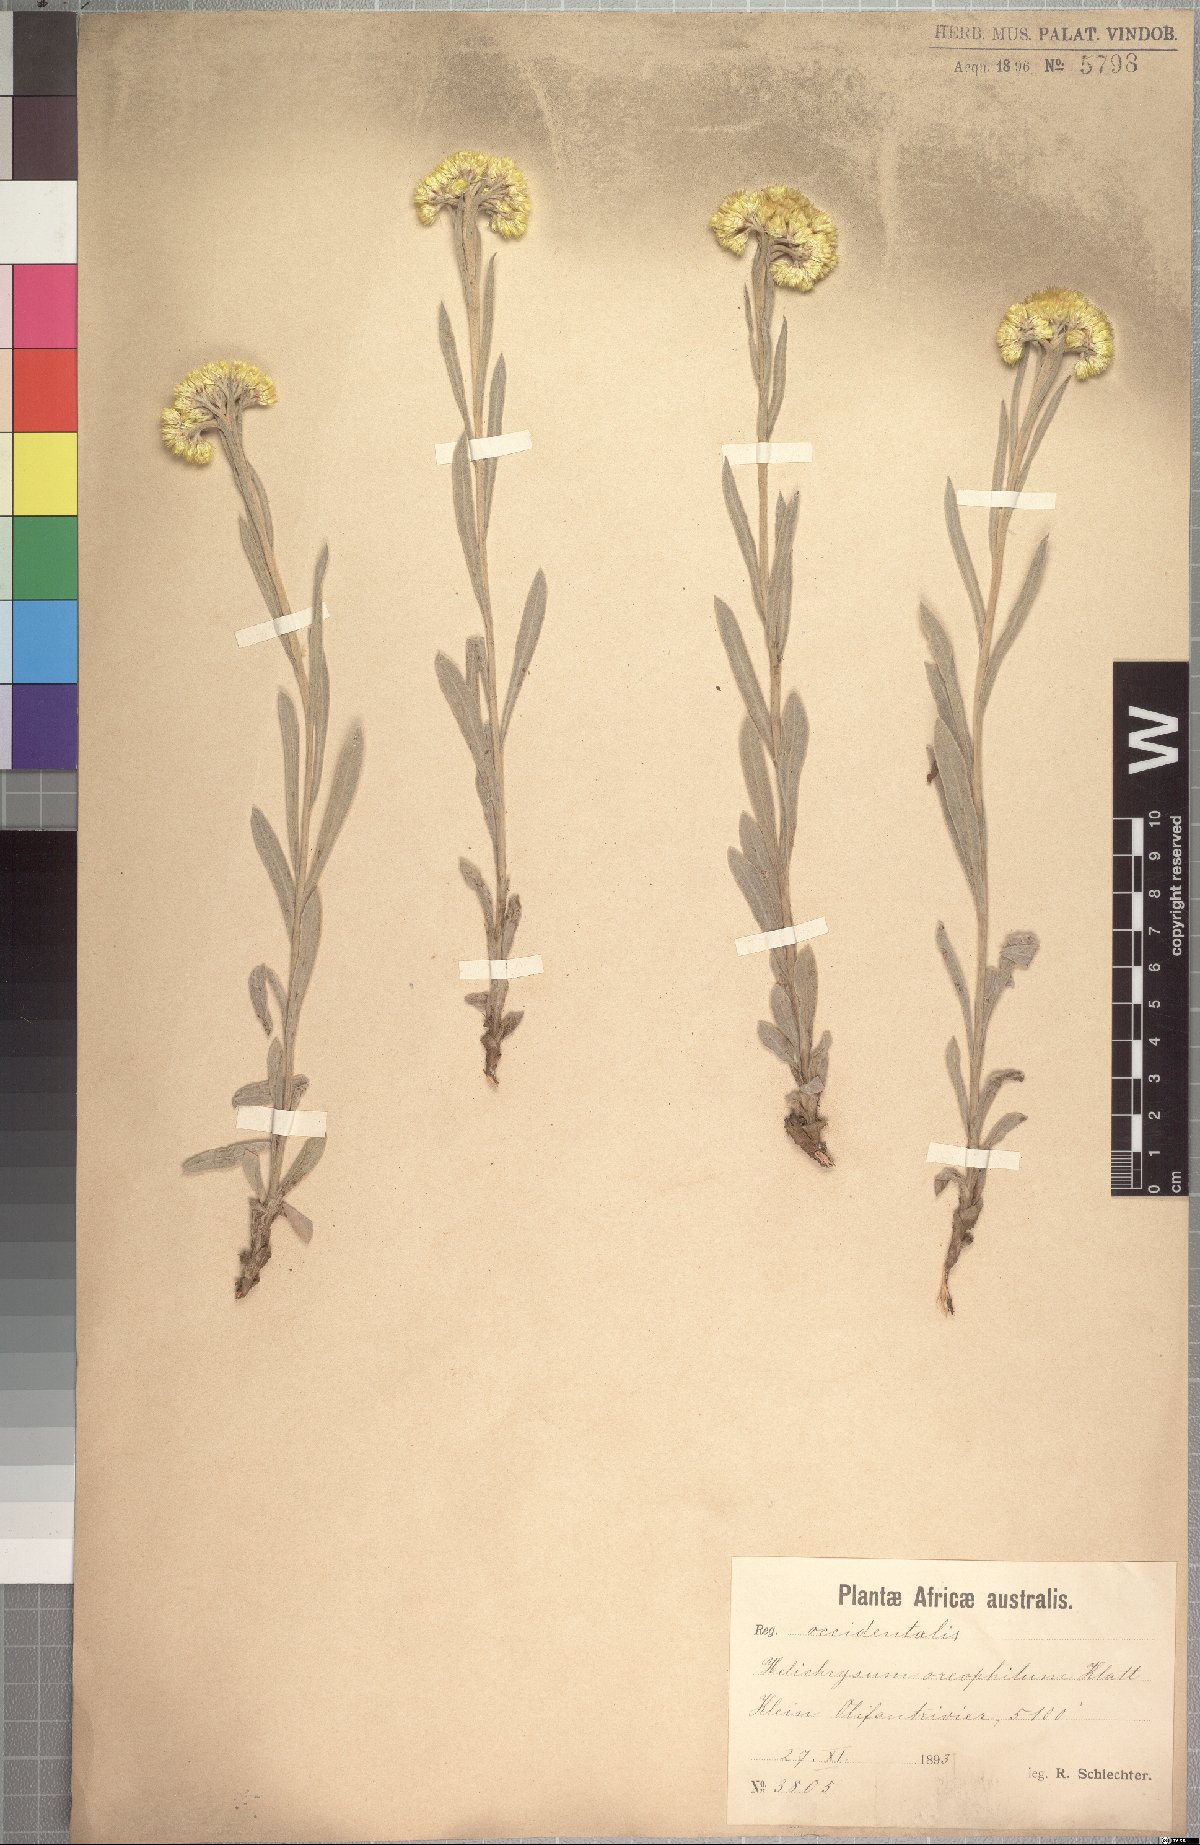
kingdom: Plantae
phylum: Tracheophyta
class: Magnoliopsida
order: Asterales
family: Asteraceae
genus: Helichrysum
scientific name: Helichrysum oreophilum
